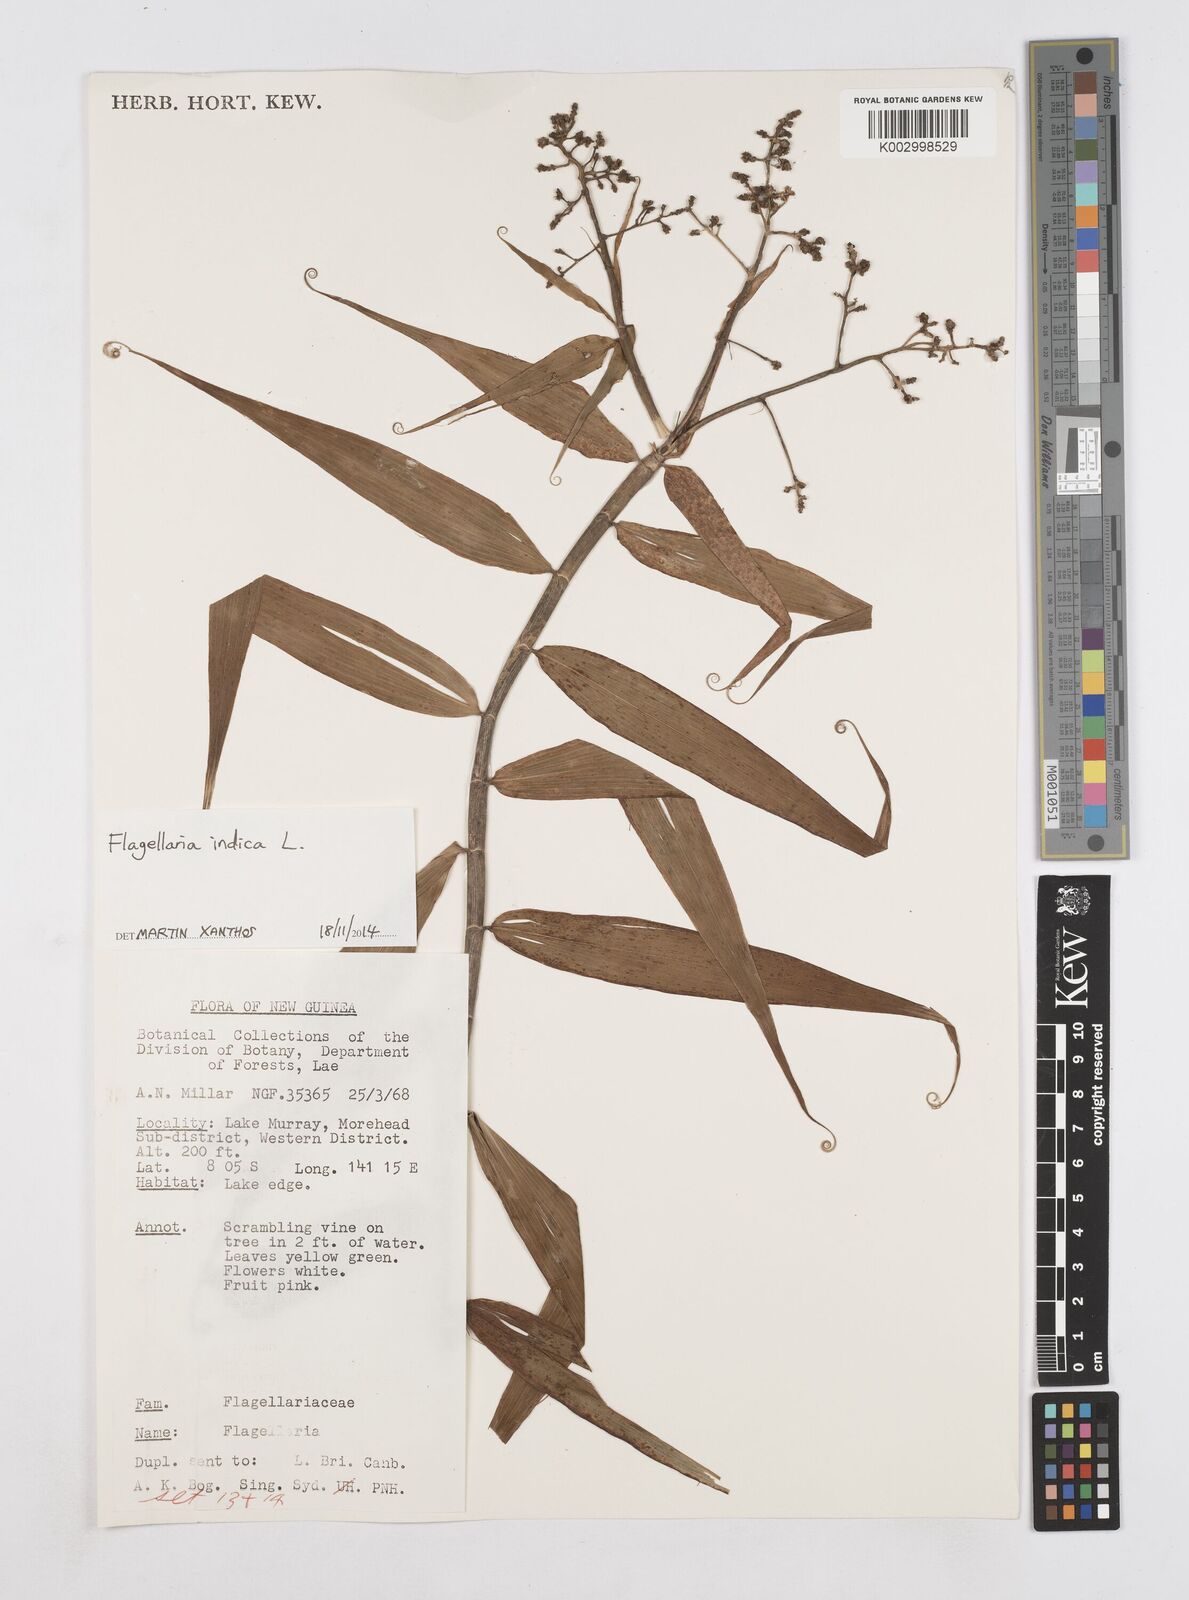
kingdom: Plantae
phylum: Tracheophyta
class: Liliopsida
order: Poales
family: Flagellariaceae
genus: Flagellaria
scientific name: Flagellaria indica
